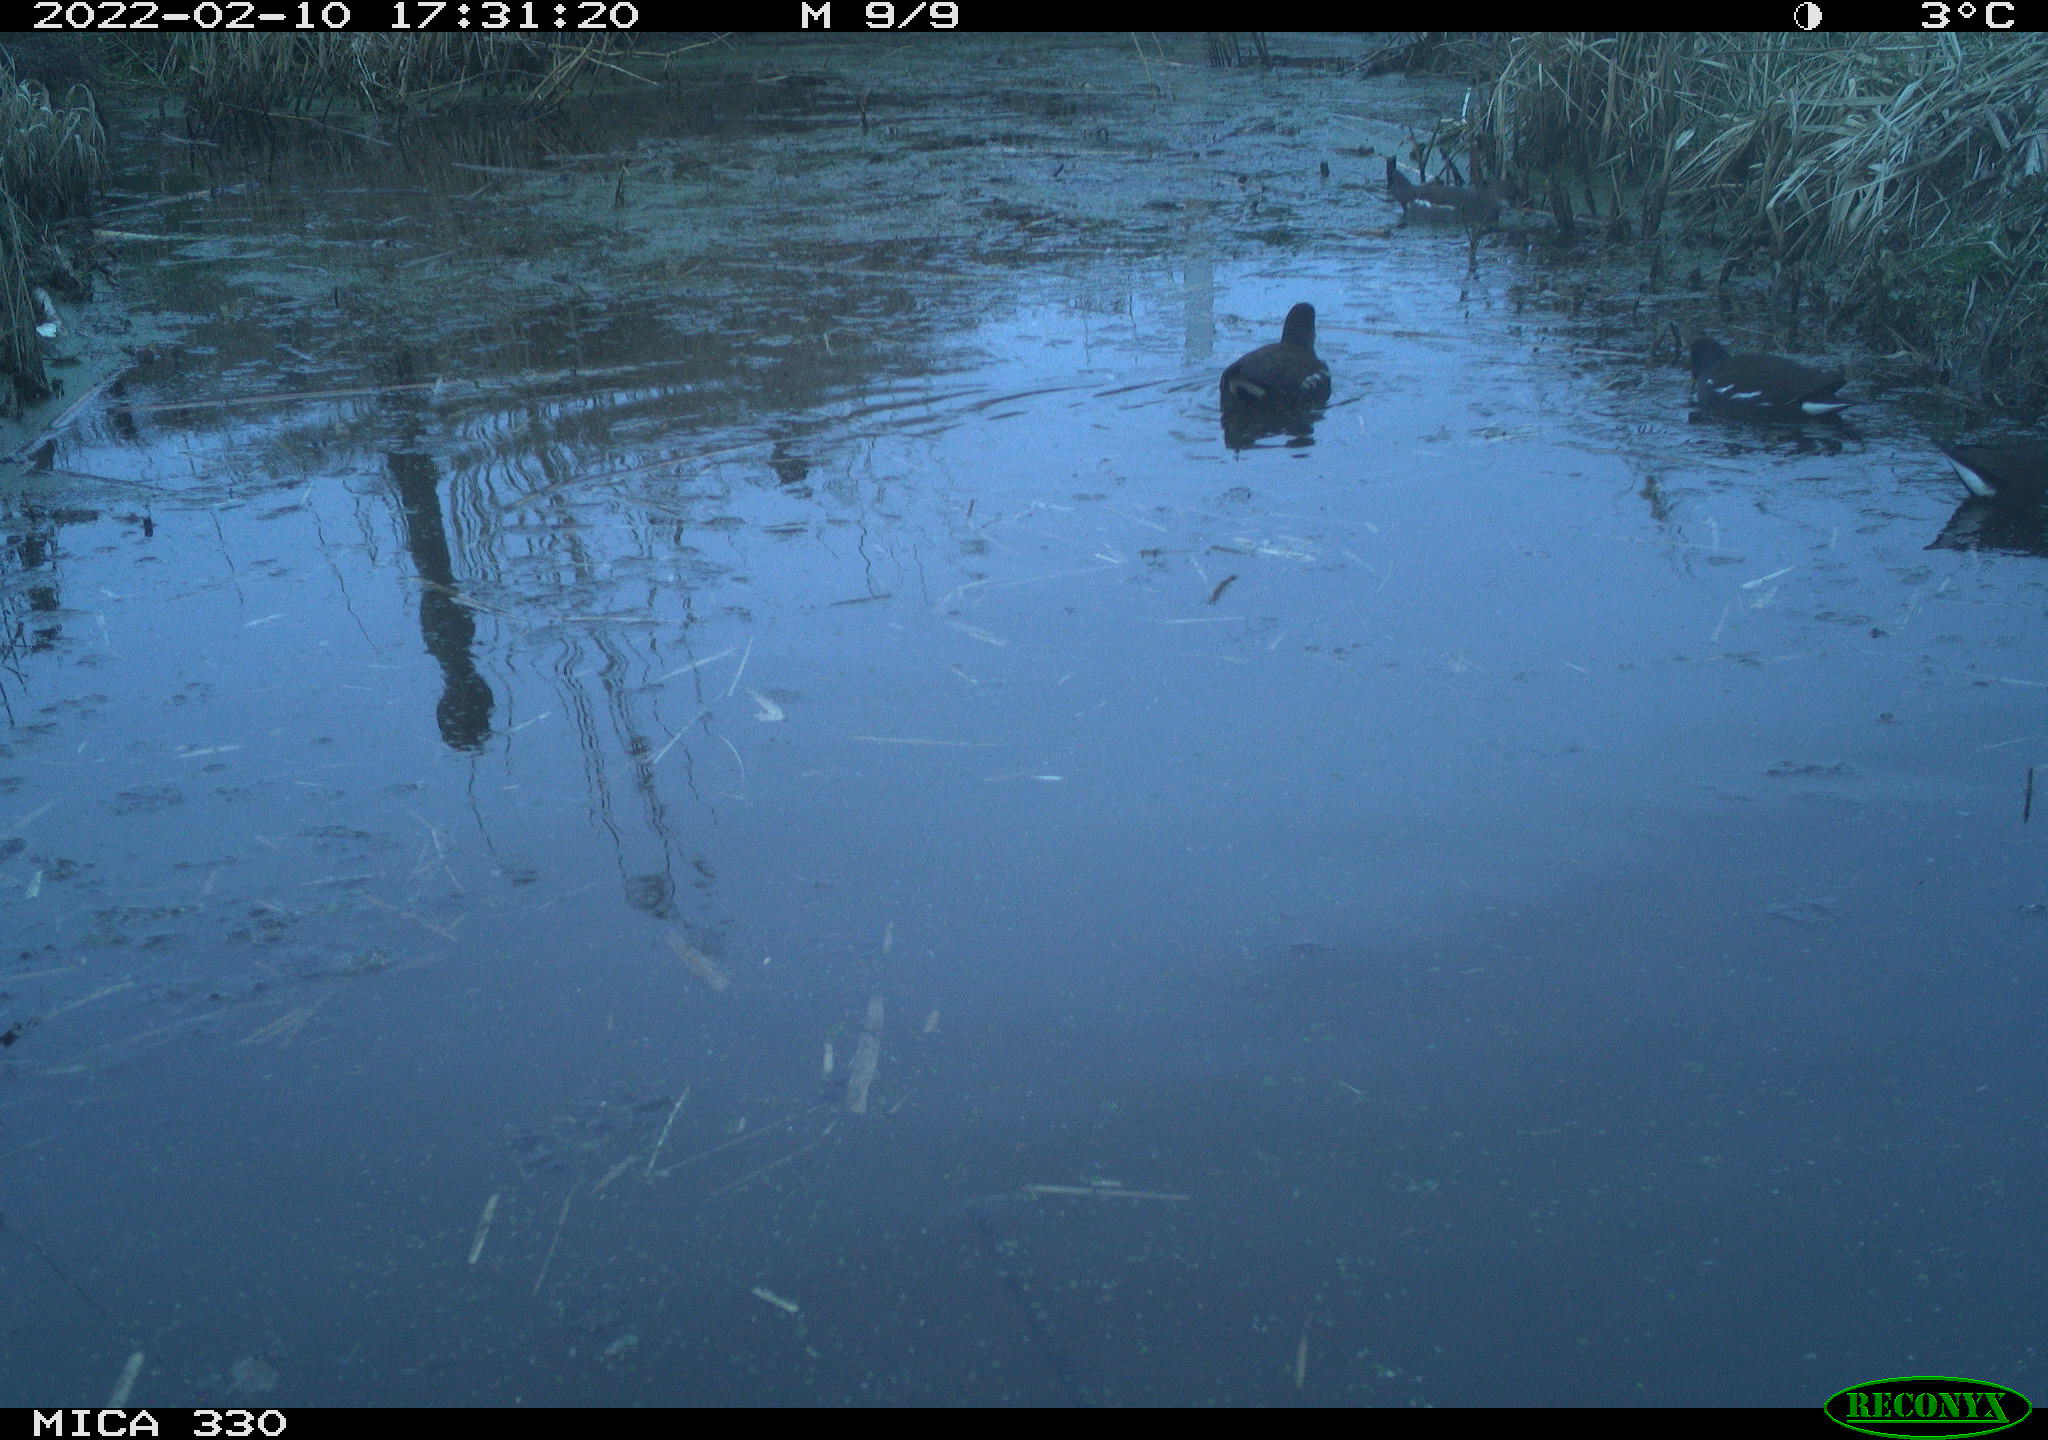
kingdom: Animalia
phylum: Chordata
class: Aves
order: Gruiformes
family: Rallidae
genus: Gallinula
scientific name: Gallinula chloropus
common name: Common moorhen
